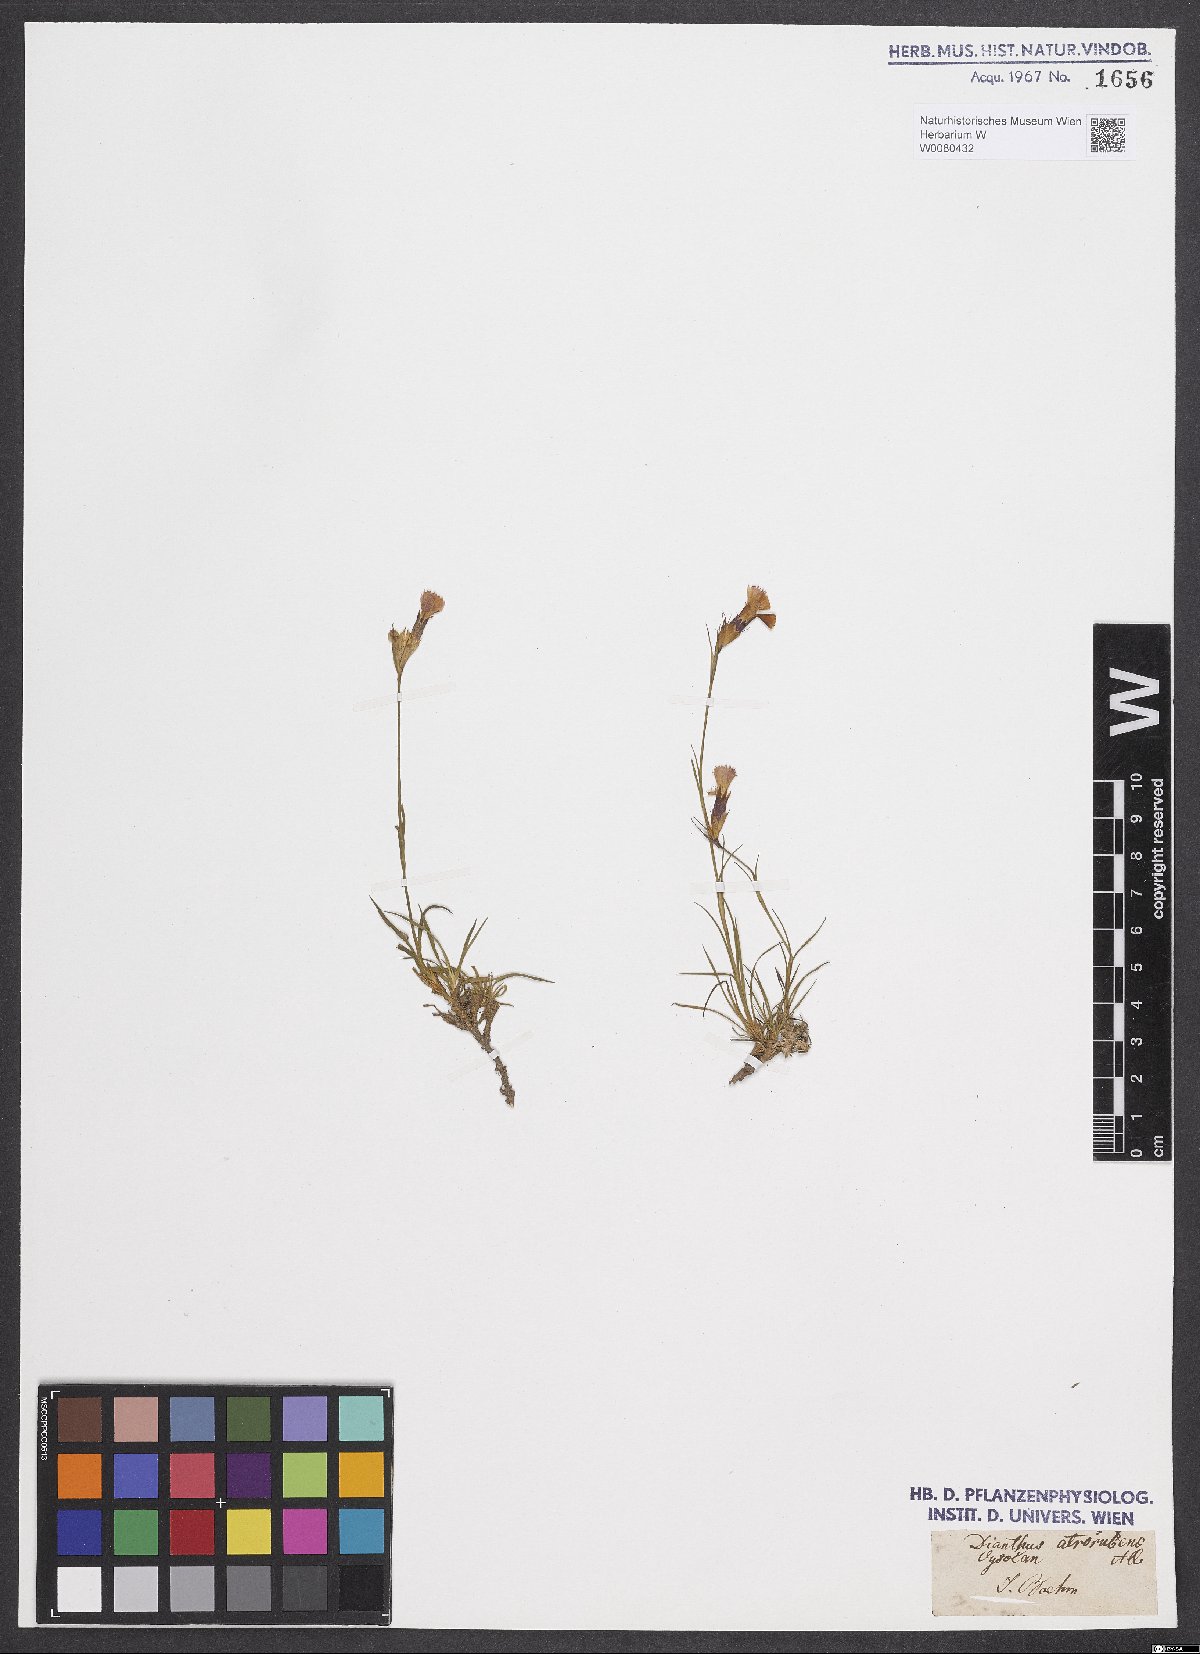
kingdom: Plantae
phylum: Tracheophyta
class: Magnoliopsida
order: Caryophyllales
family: Caryophyllaceae
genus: Dianthus
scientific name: Dianthus carthusianorum
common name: Carthusian pink
